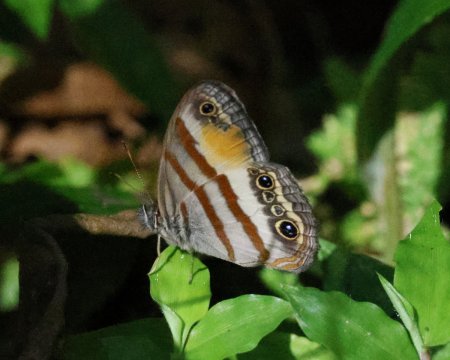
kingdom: Animalia
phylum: Arthropoda
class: Insecta
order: Lepidoptera
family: Nymphalidae
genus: Euptychia
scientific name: Euptychia Cissia pseudoconfusa
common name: Gold-stained Satyr
